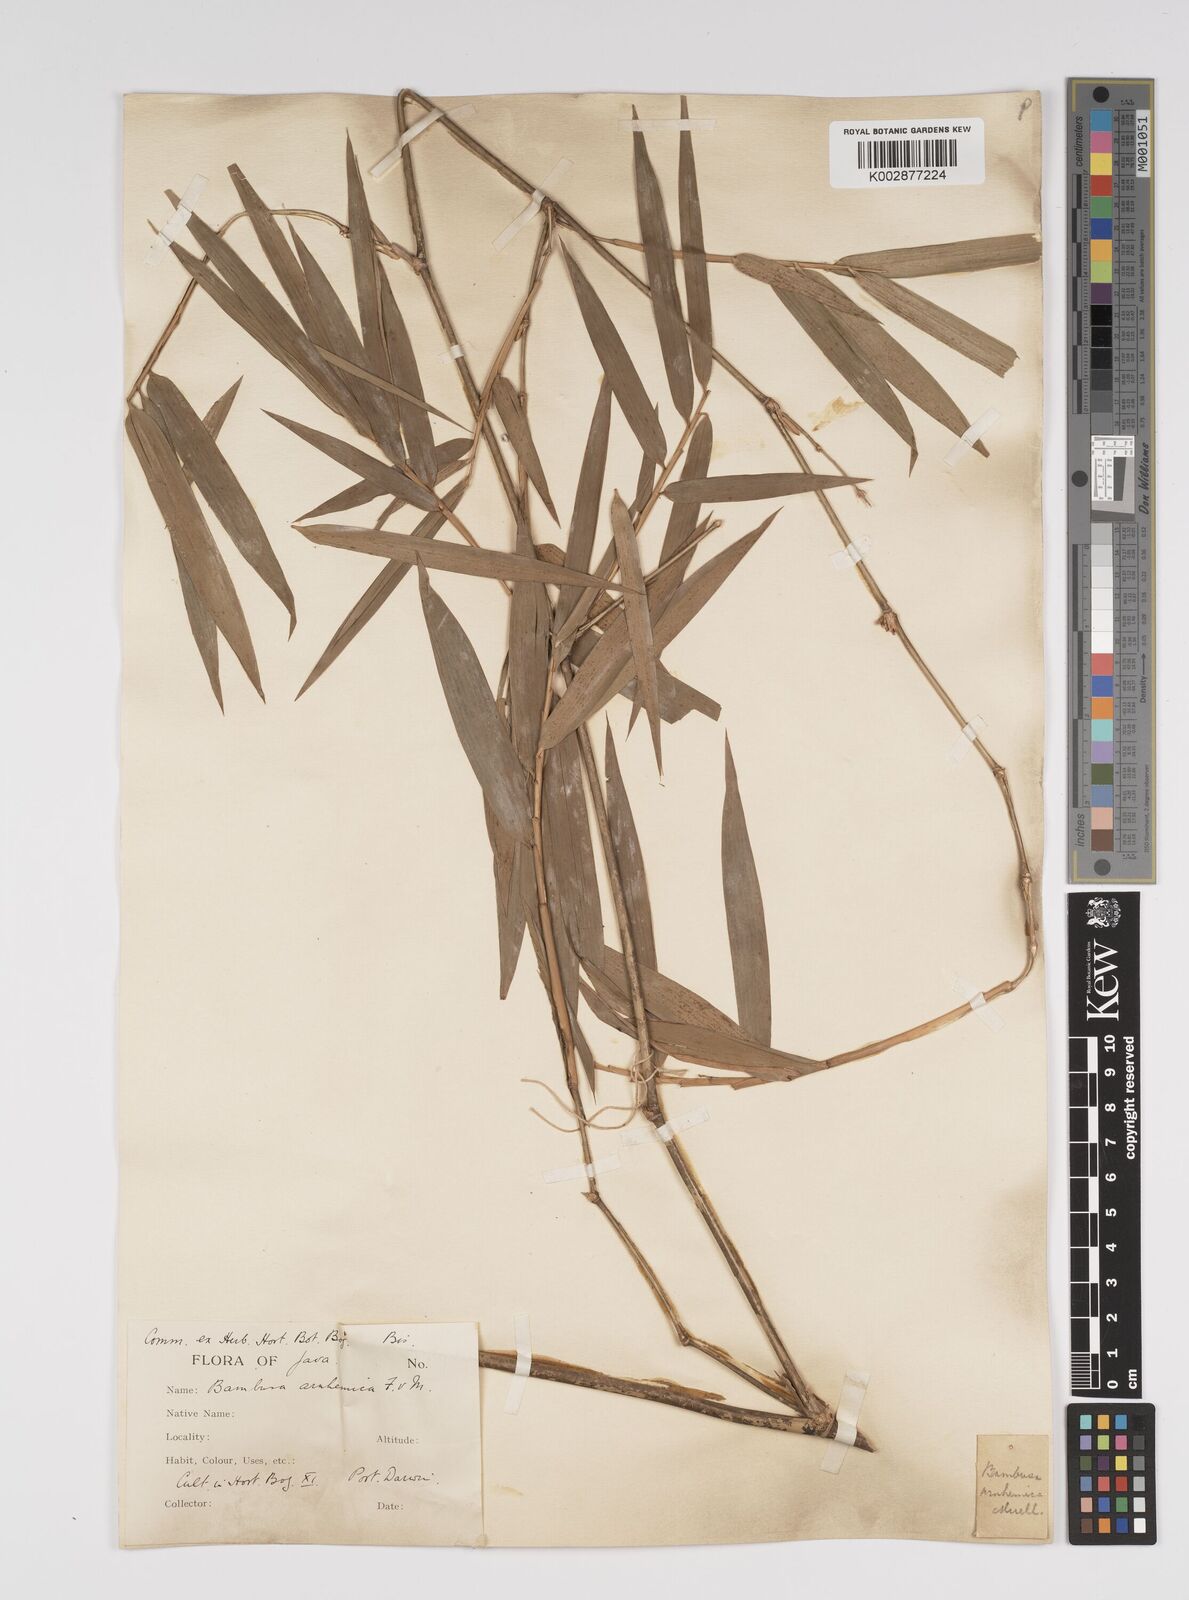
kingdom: Plantae
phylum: Tracheophyta
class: Liliopsida
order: Poales
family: Poaceae
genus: Bambusa
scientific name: Bambusa arnhemica
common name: Top-end bamboo
